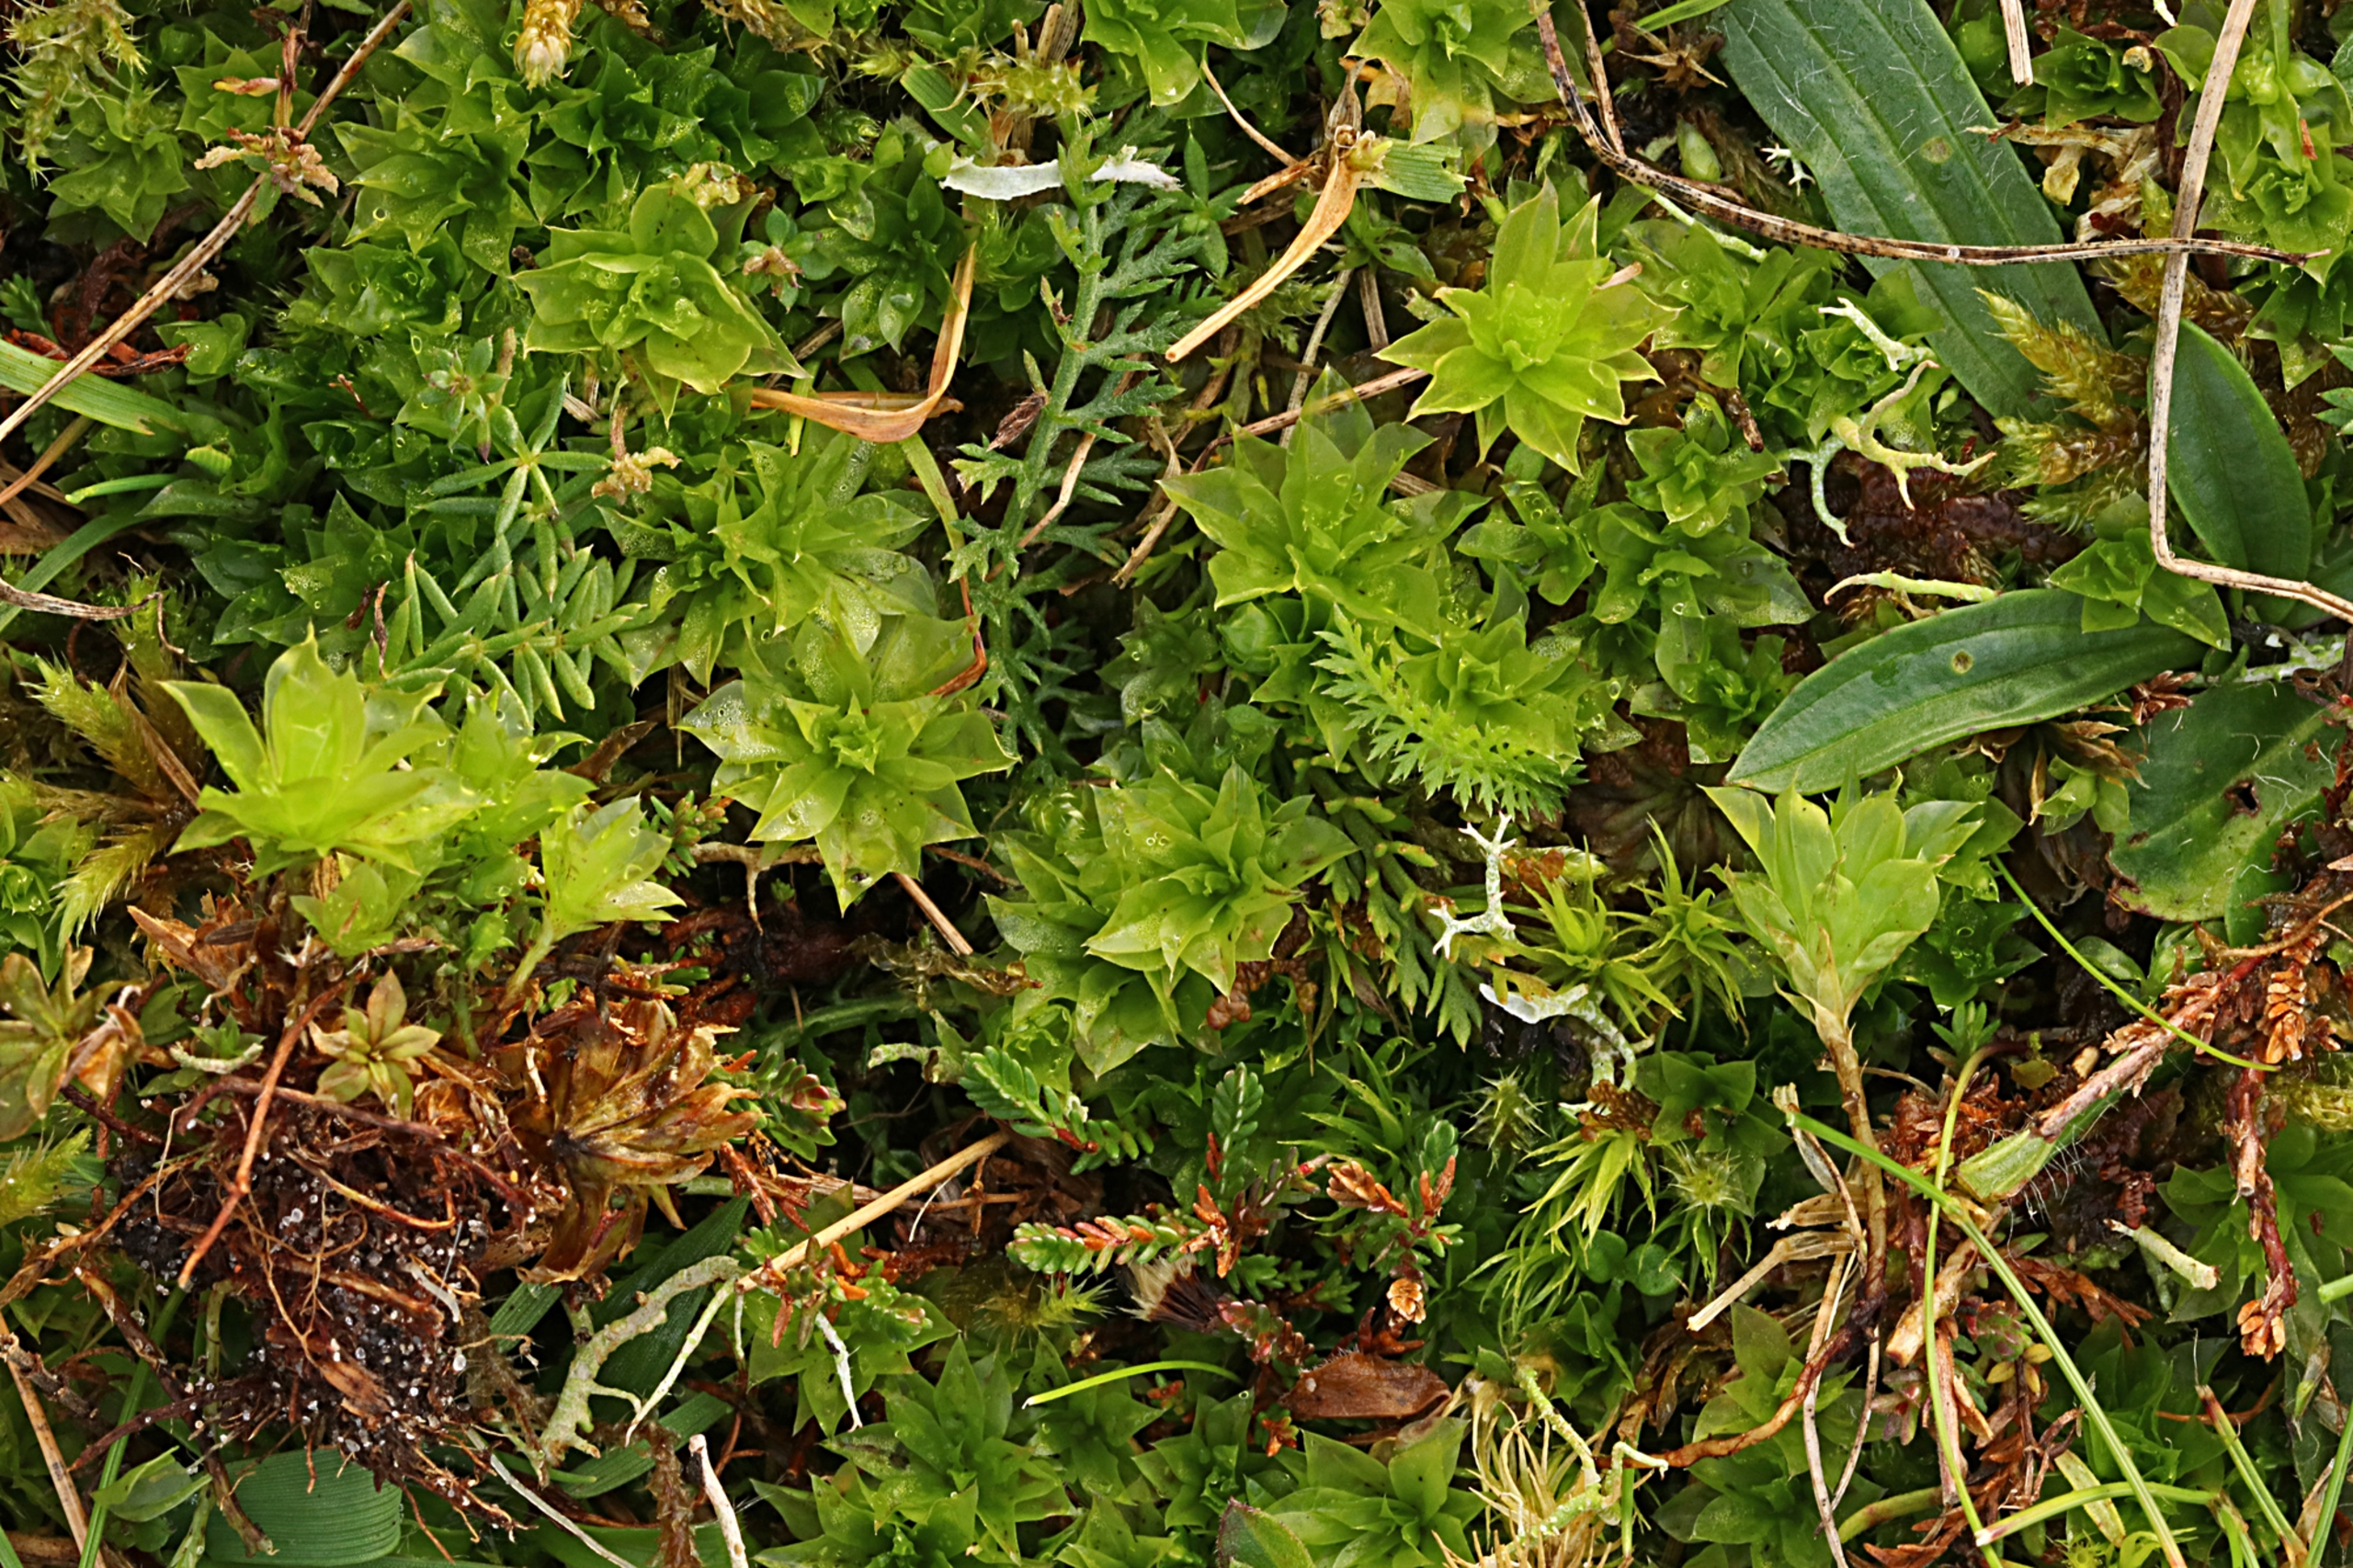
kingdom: Plantae
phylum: Bryophyta
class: Bryopsida
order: Bryales
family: Bryaceae
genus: Rhodobryum
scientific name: Rhodobryum roseum
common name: Stor rosetmos
